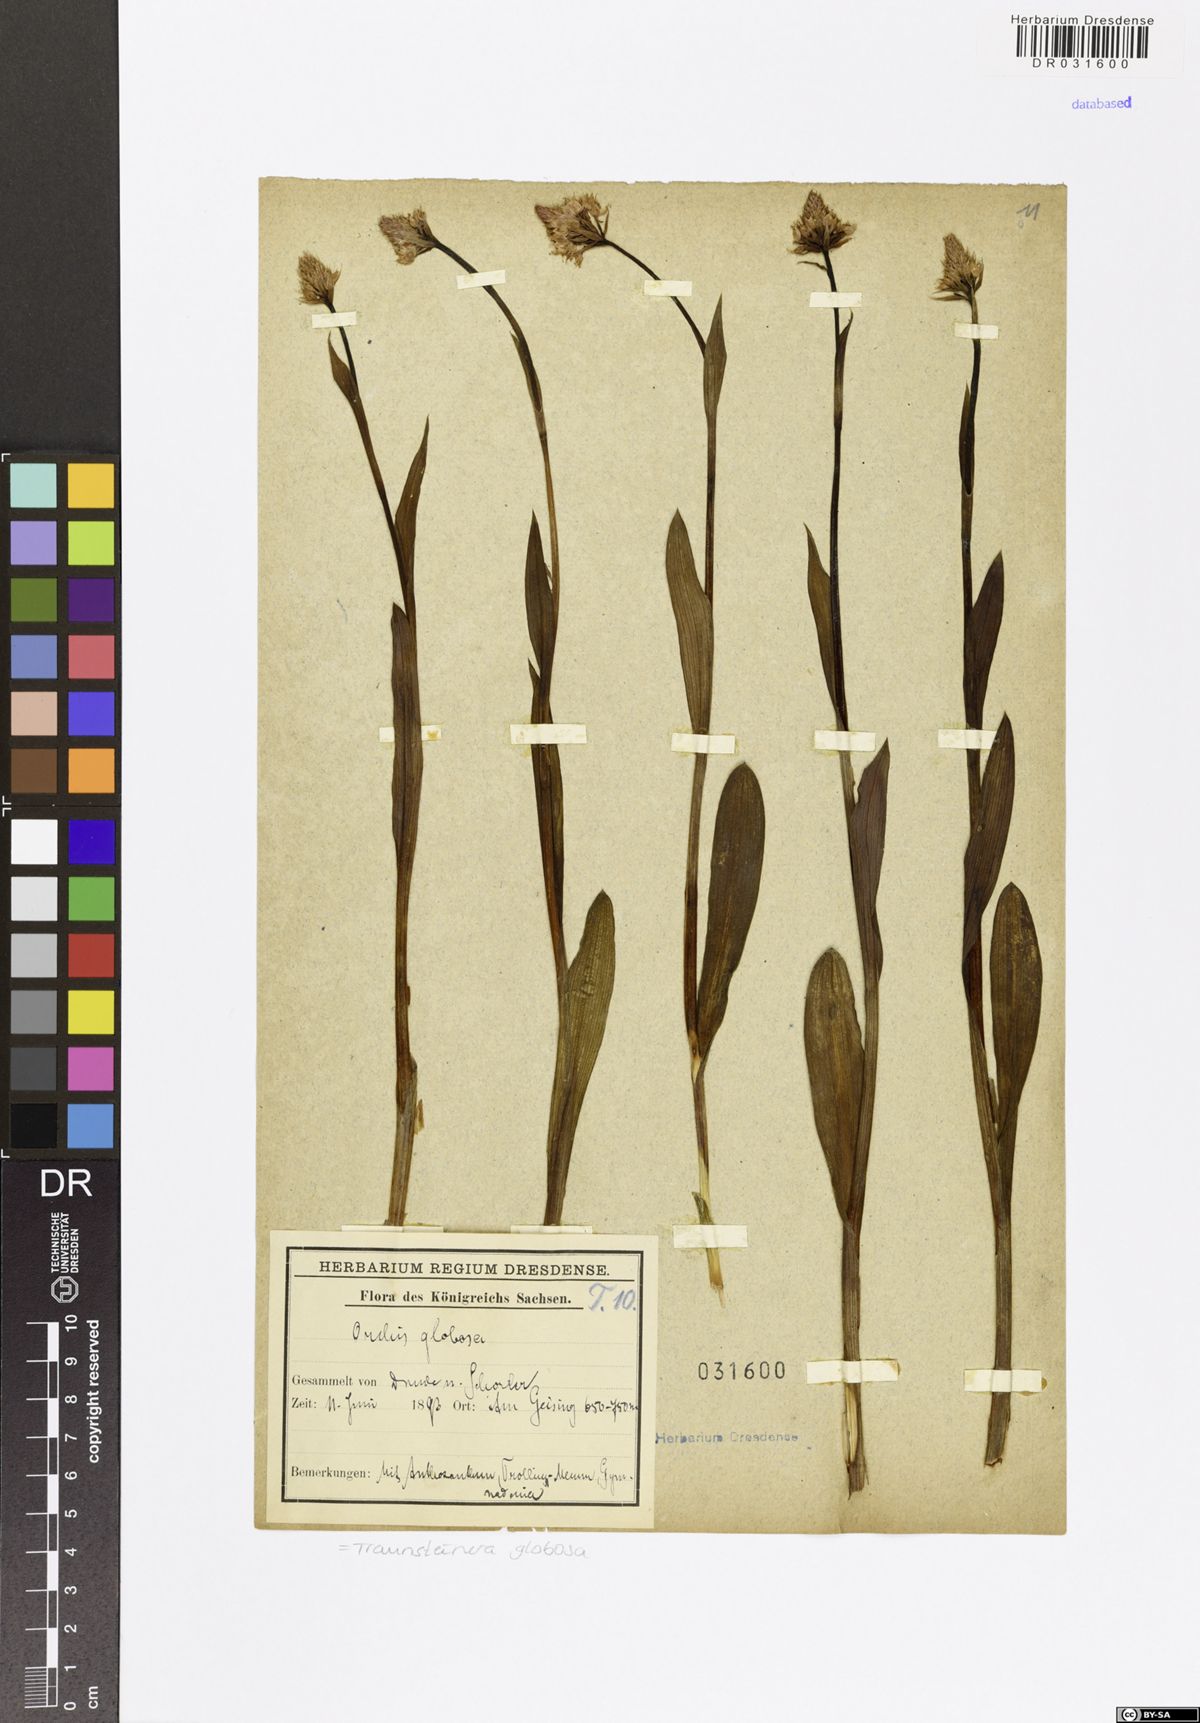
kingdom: Plantae
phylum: Tracheophyta
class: Liliopsida
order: Asparagales
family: Orchidaceae
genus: Traunsteinera
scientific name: Traunsteinera globosa
